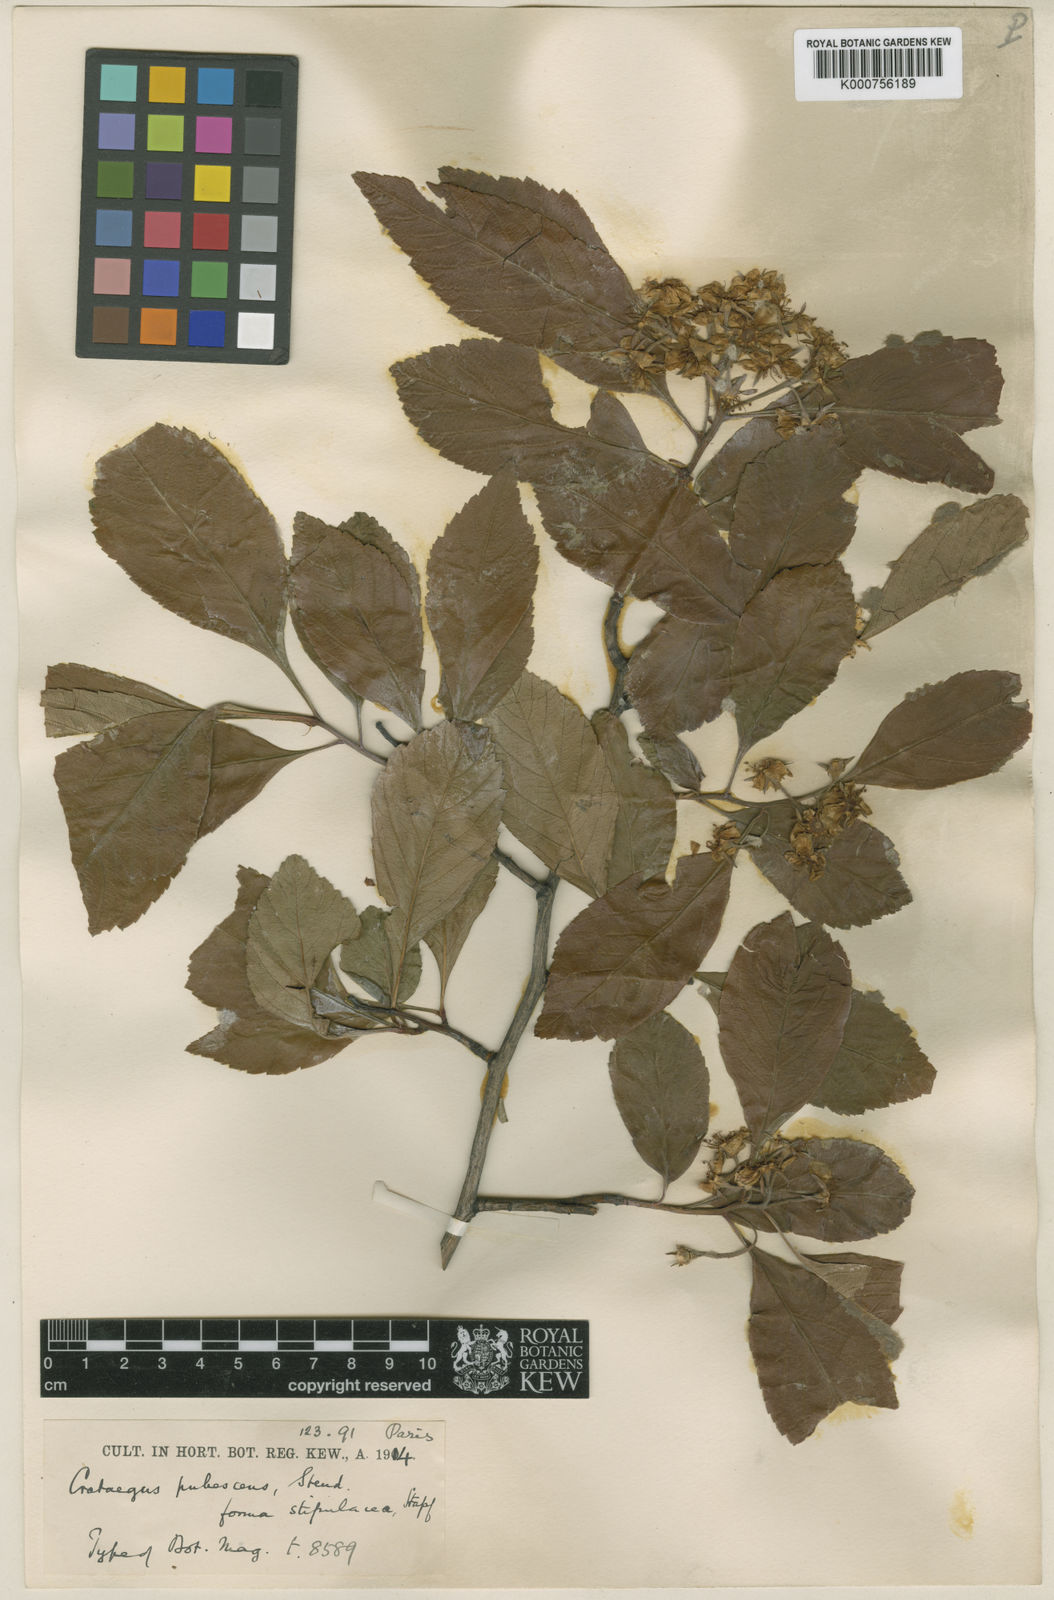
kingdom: Plantae
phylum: Tracheophyta
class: Magnoliopsida
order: Rosales
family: Rosaceae
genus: Crataegus
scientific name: Crataegus gracilior
